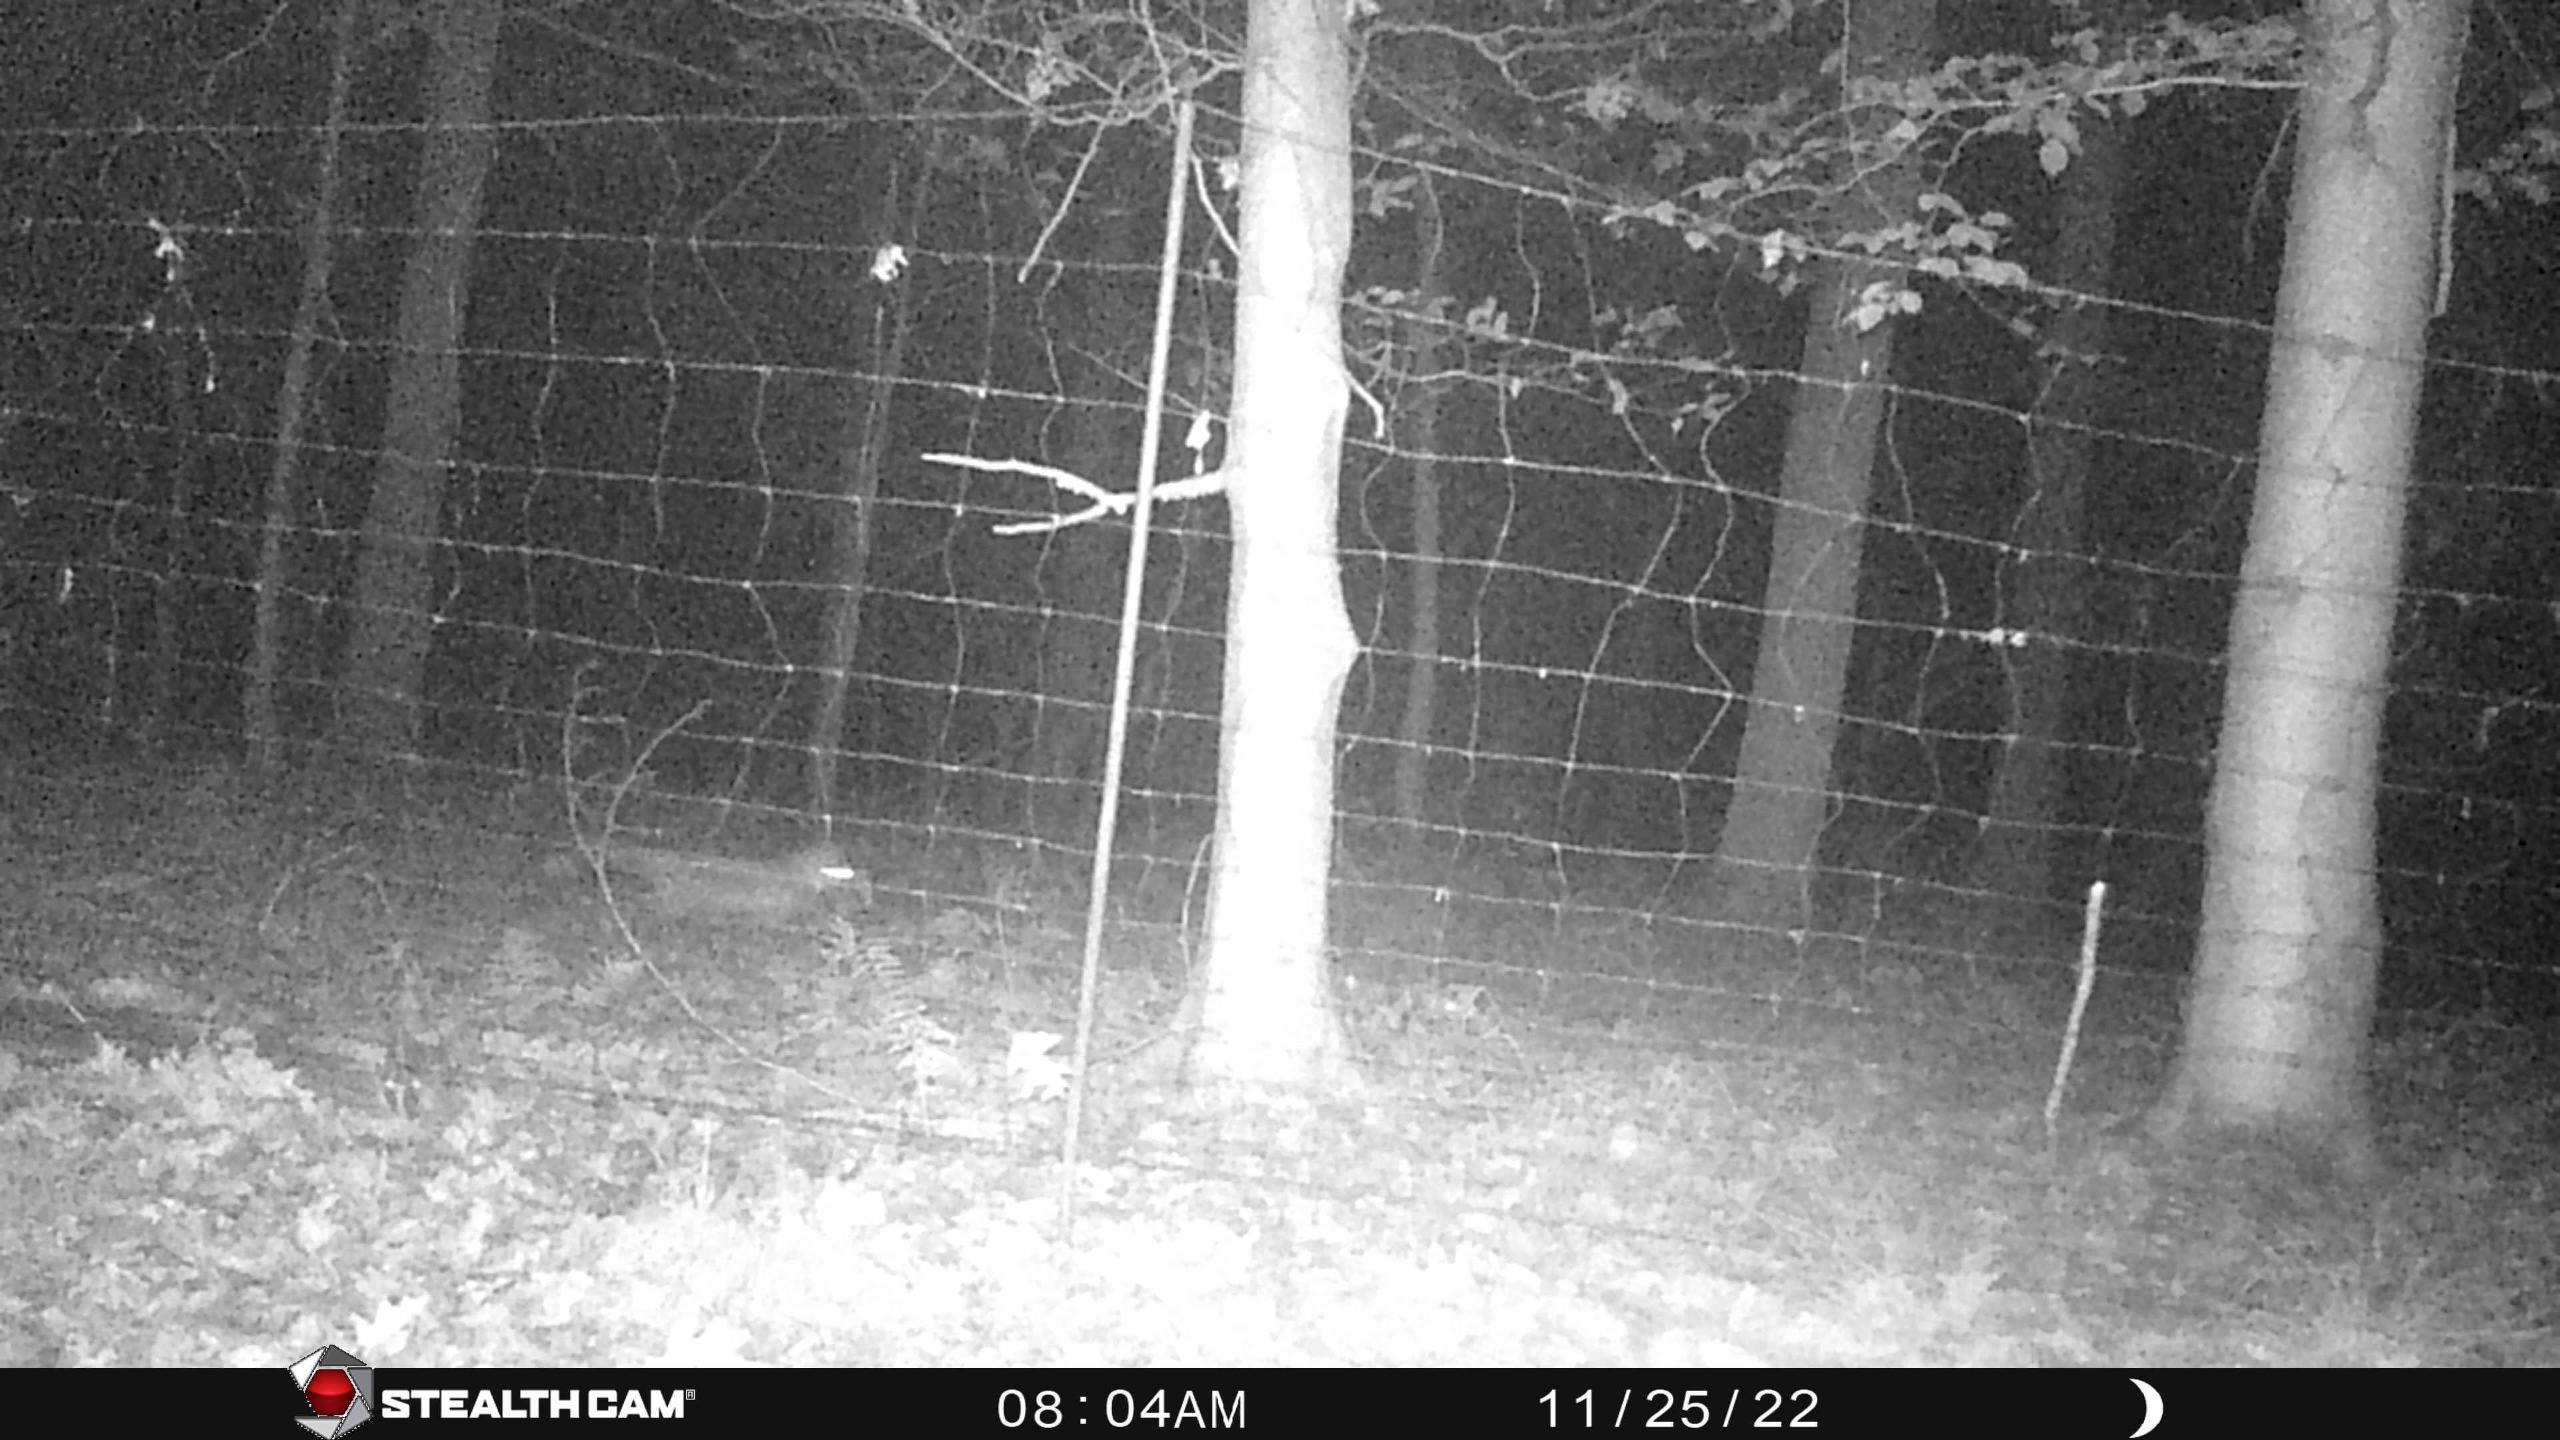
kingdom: Animalia
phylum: Chordata
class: Mammalia
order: Carnivora
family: Canidae
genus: Vulpes
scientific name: Vulpes vulpes
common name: Ræv
